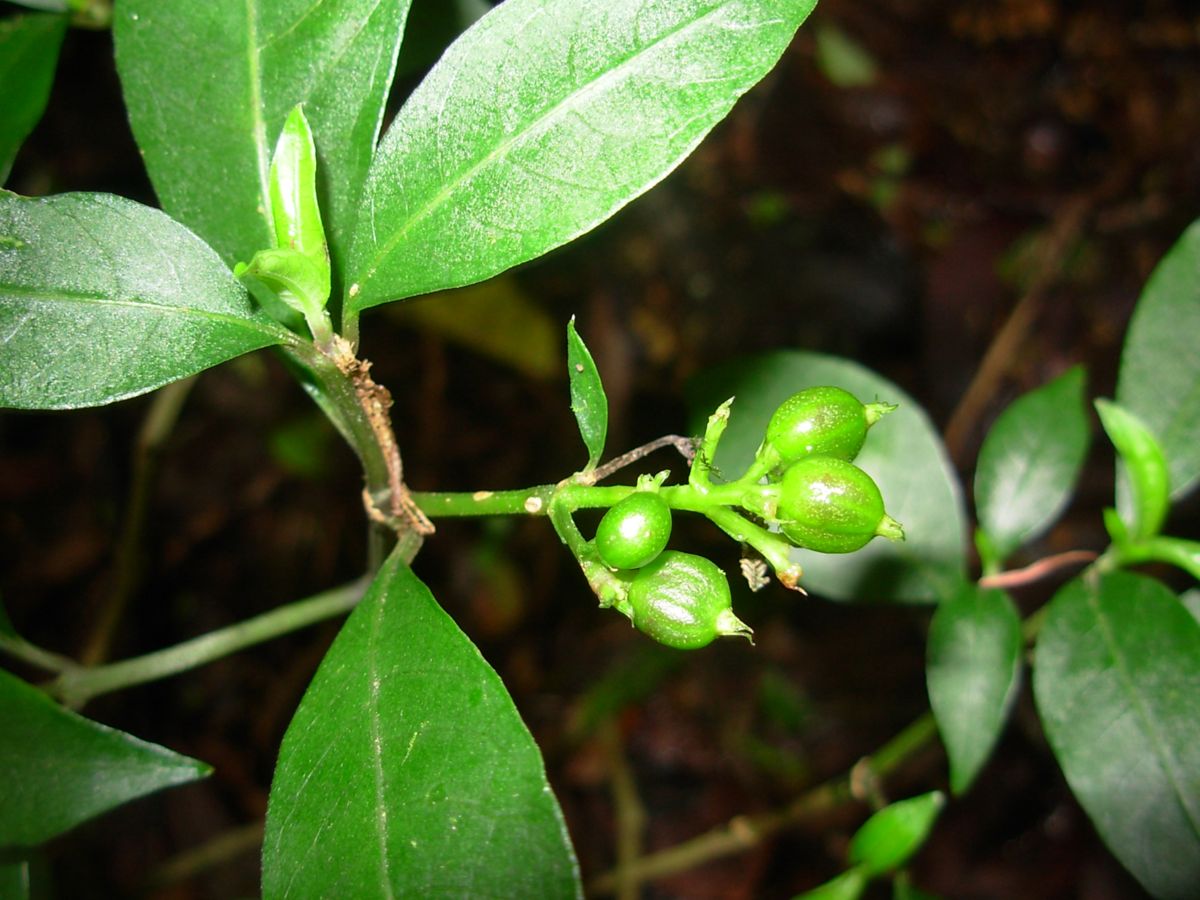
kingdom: Plantae
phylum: Tracheophyta
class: Magnoliopsida
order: Gentianales
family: Rubiaceae
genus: Psychotria
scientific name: Psychotria
